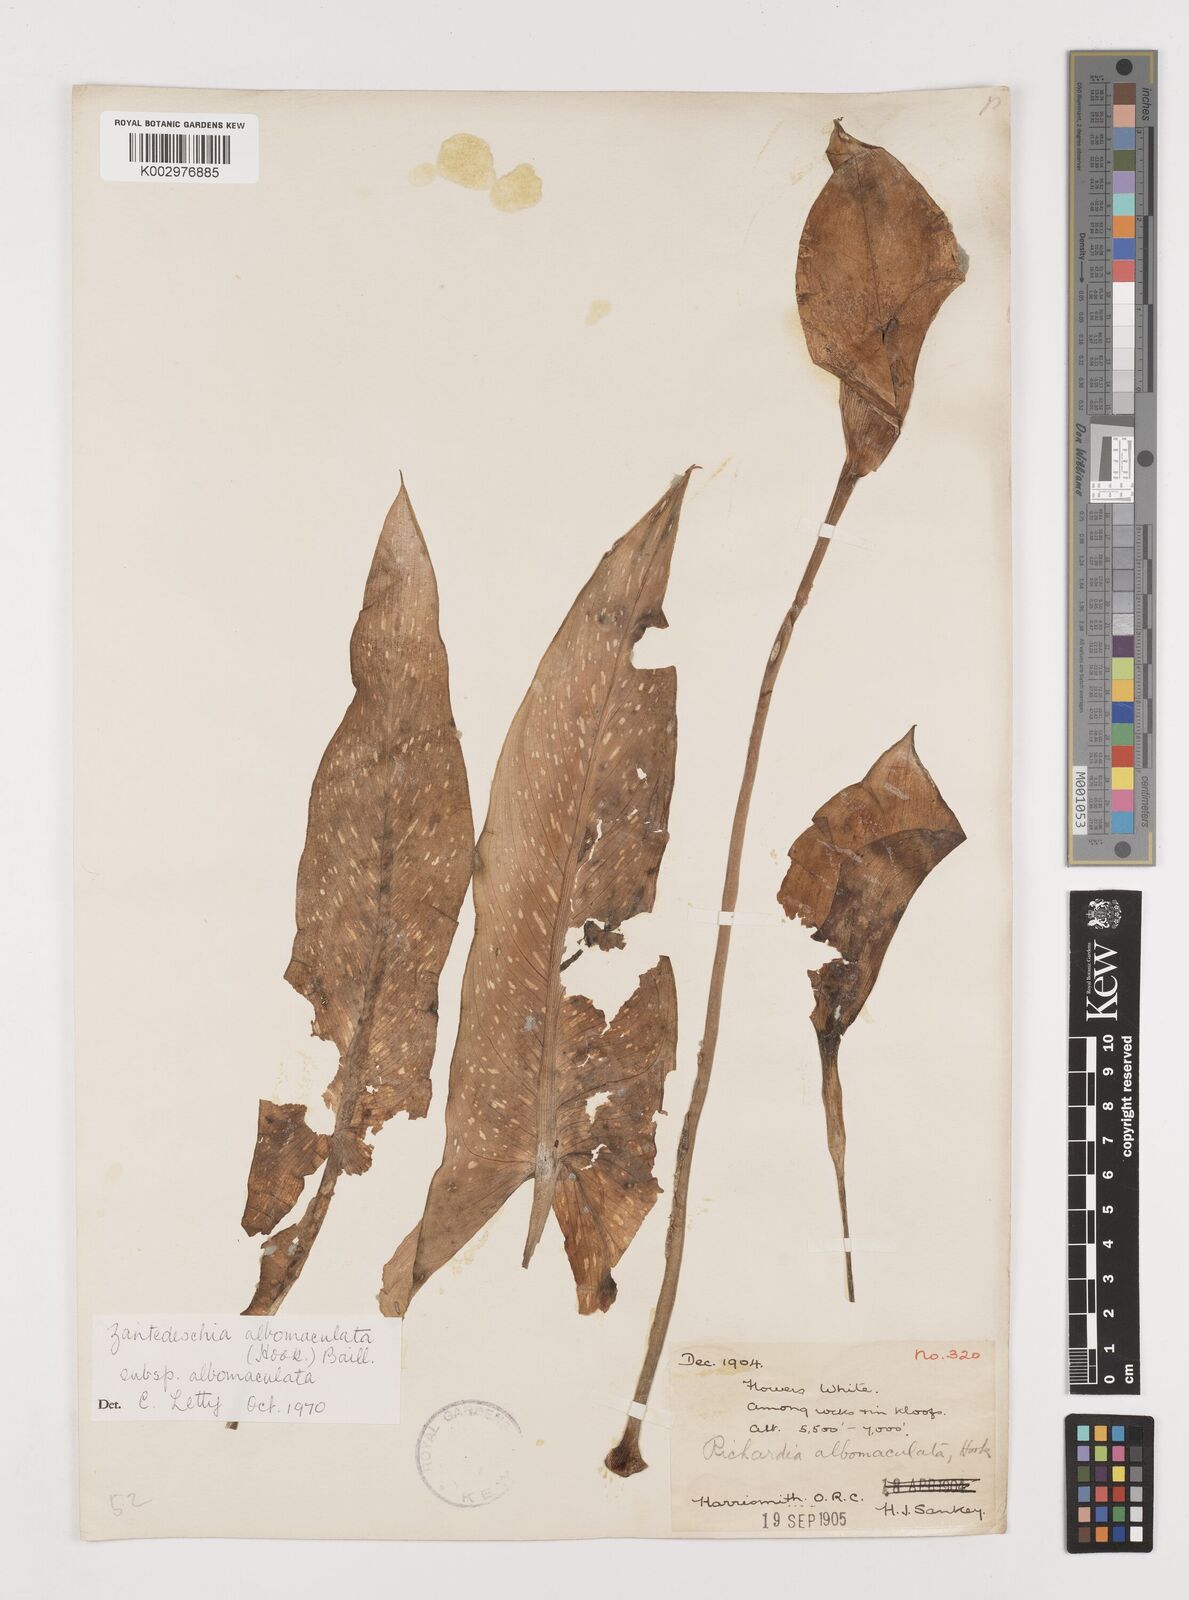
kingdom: Plantae
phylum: Tracheophyta
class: Liliopsida
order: Alismatales
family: Araceae
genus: Zantedeschia
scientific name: Zantedeschia albomaculata
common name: Spotted calla lily
